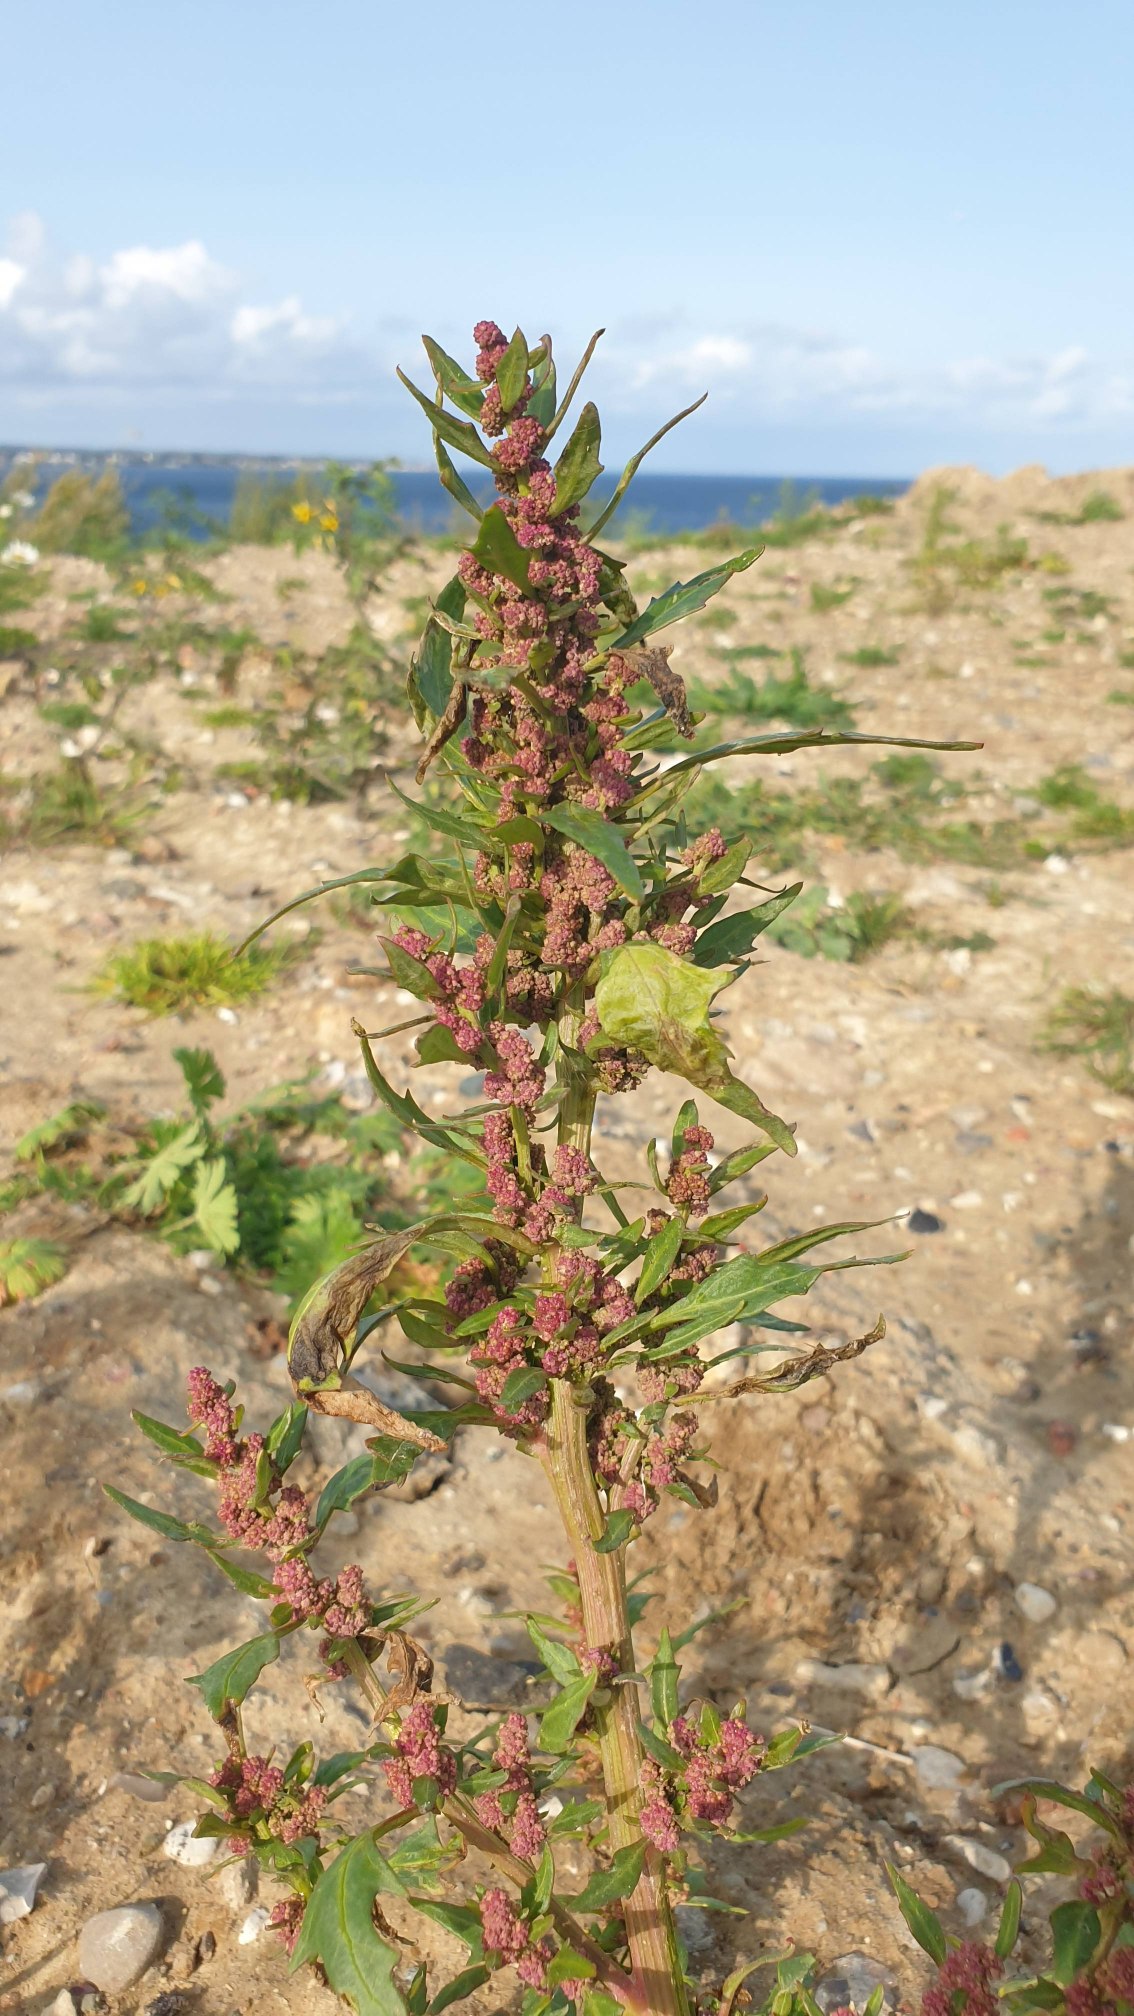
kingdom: Plantae
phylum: Tracheophyta
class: Magnoliopsida
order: Caryophyllales
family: Amaranthaceae
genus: Oxybasis
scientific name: Oxybasis rubra
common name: Rød gåsefod
